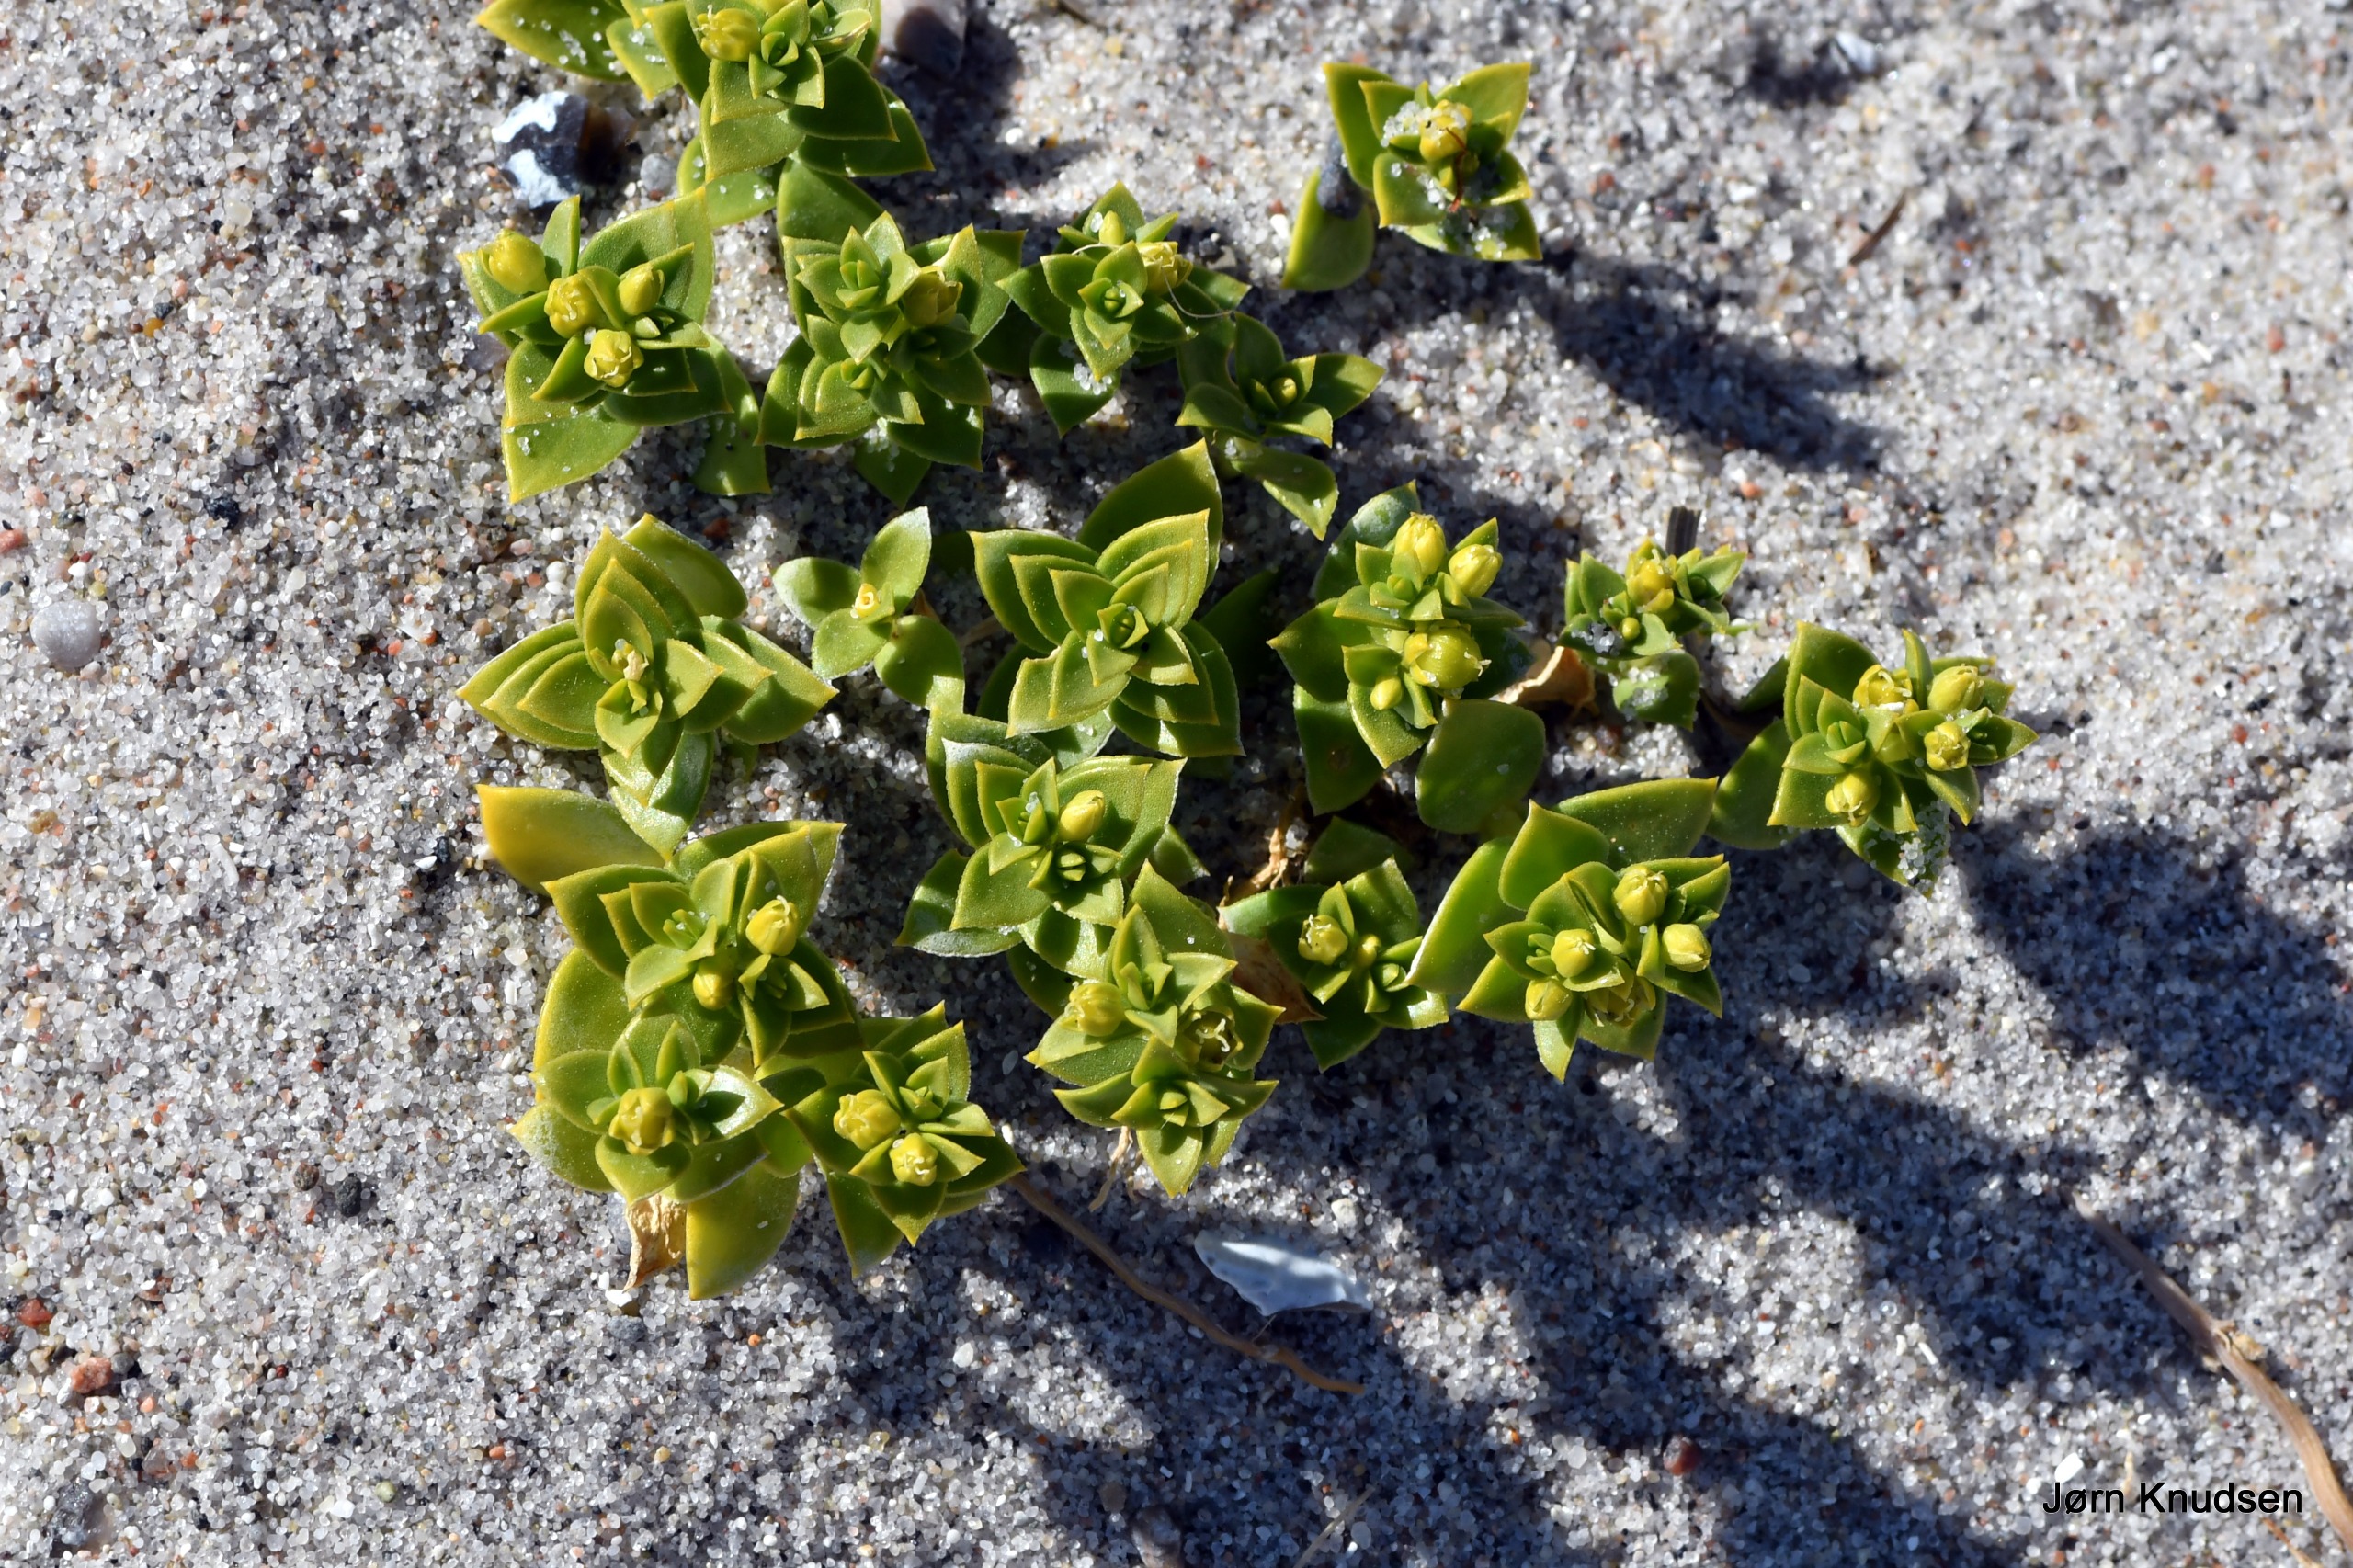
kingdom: Plantae
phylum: Tracheophyta
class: Magnoliopsida
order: Caryophyllales
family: Caryophyllaceae
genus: Honckenya
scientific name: Honckenya peploides
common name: Strandarve
